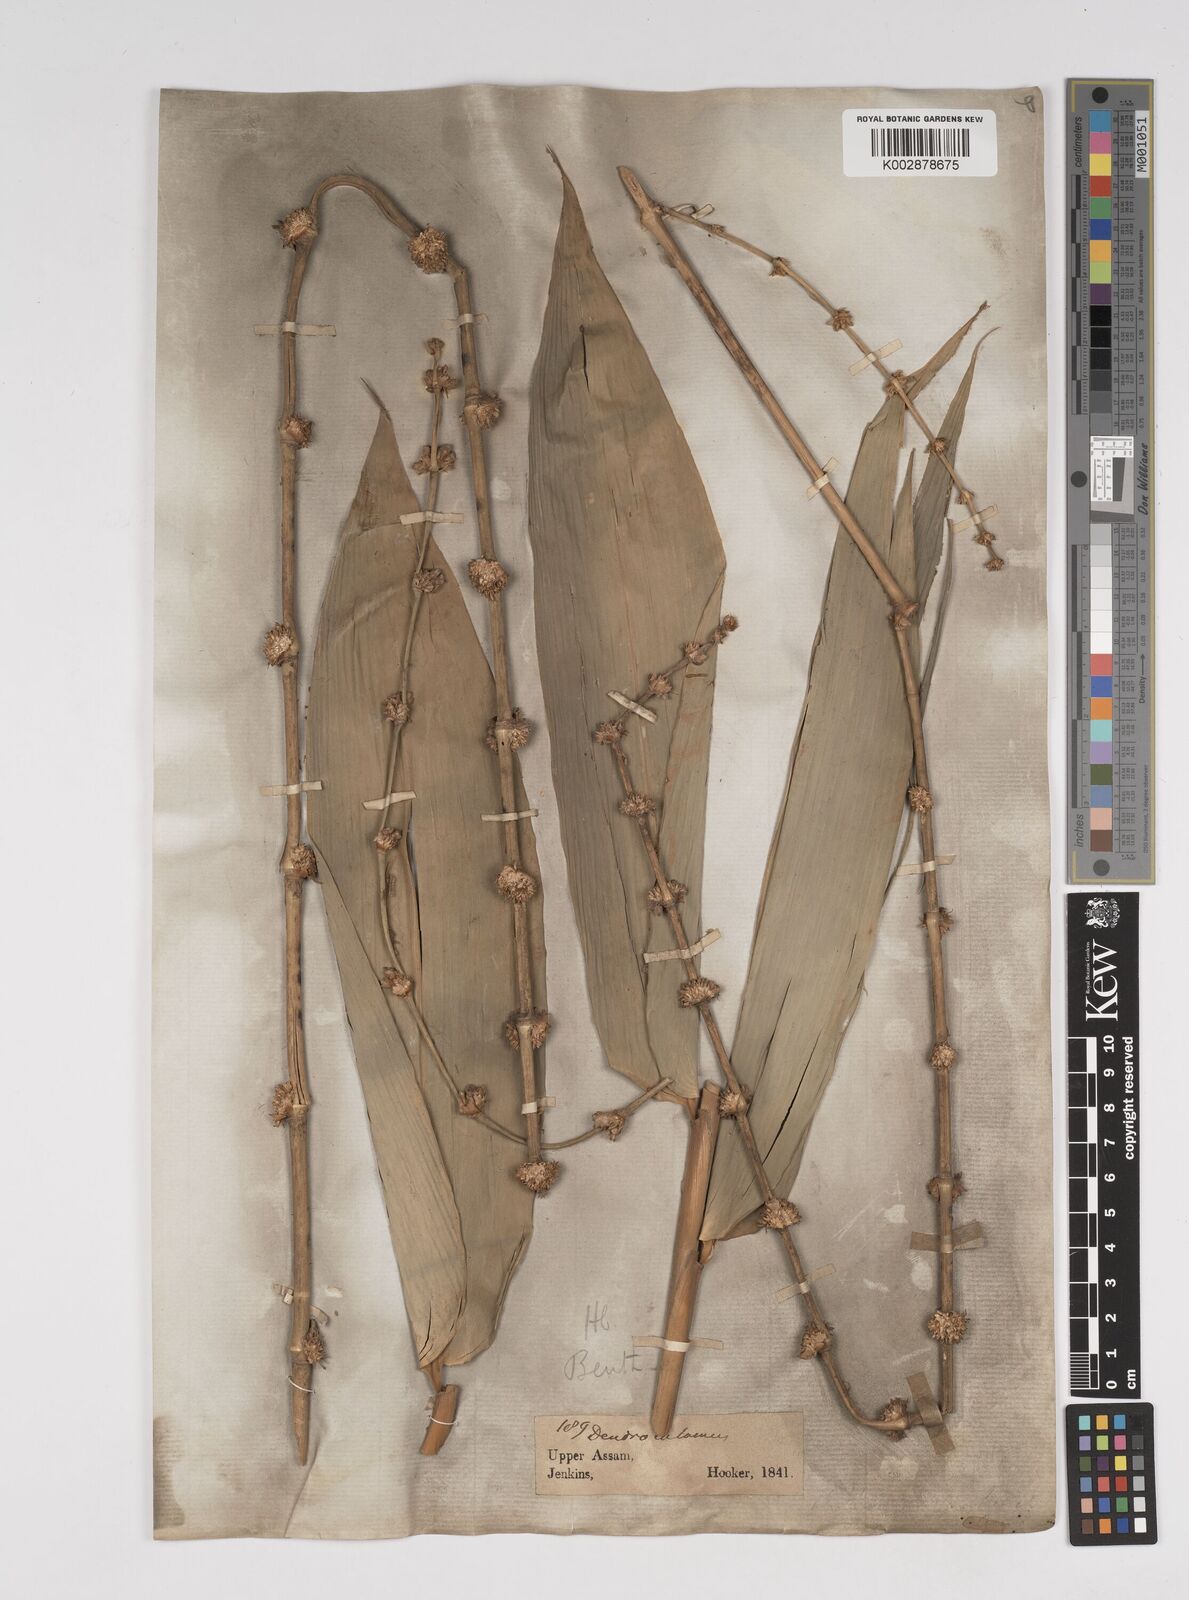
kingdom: Plantae
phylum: Tracheophyta
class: Liliopsida
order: Poales
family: Poaceae
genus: Dendrocalamus
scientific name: Dendrocalamus hamiltonii
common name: Tama bamboo
